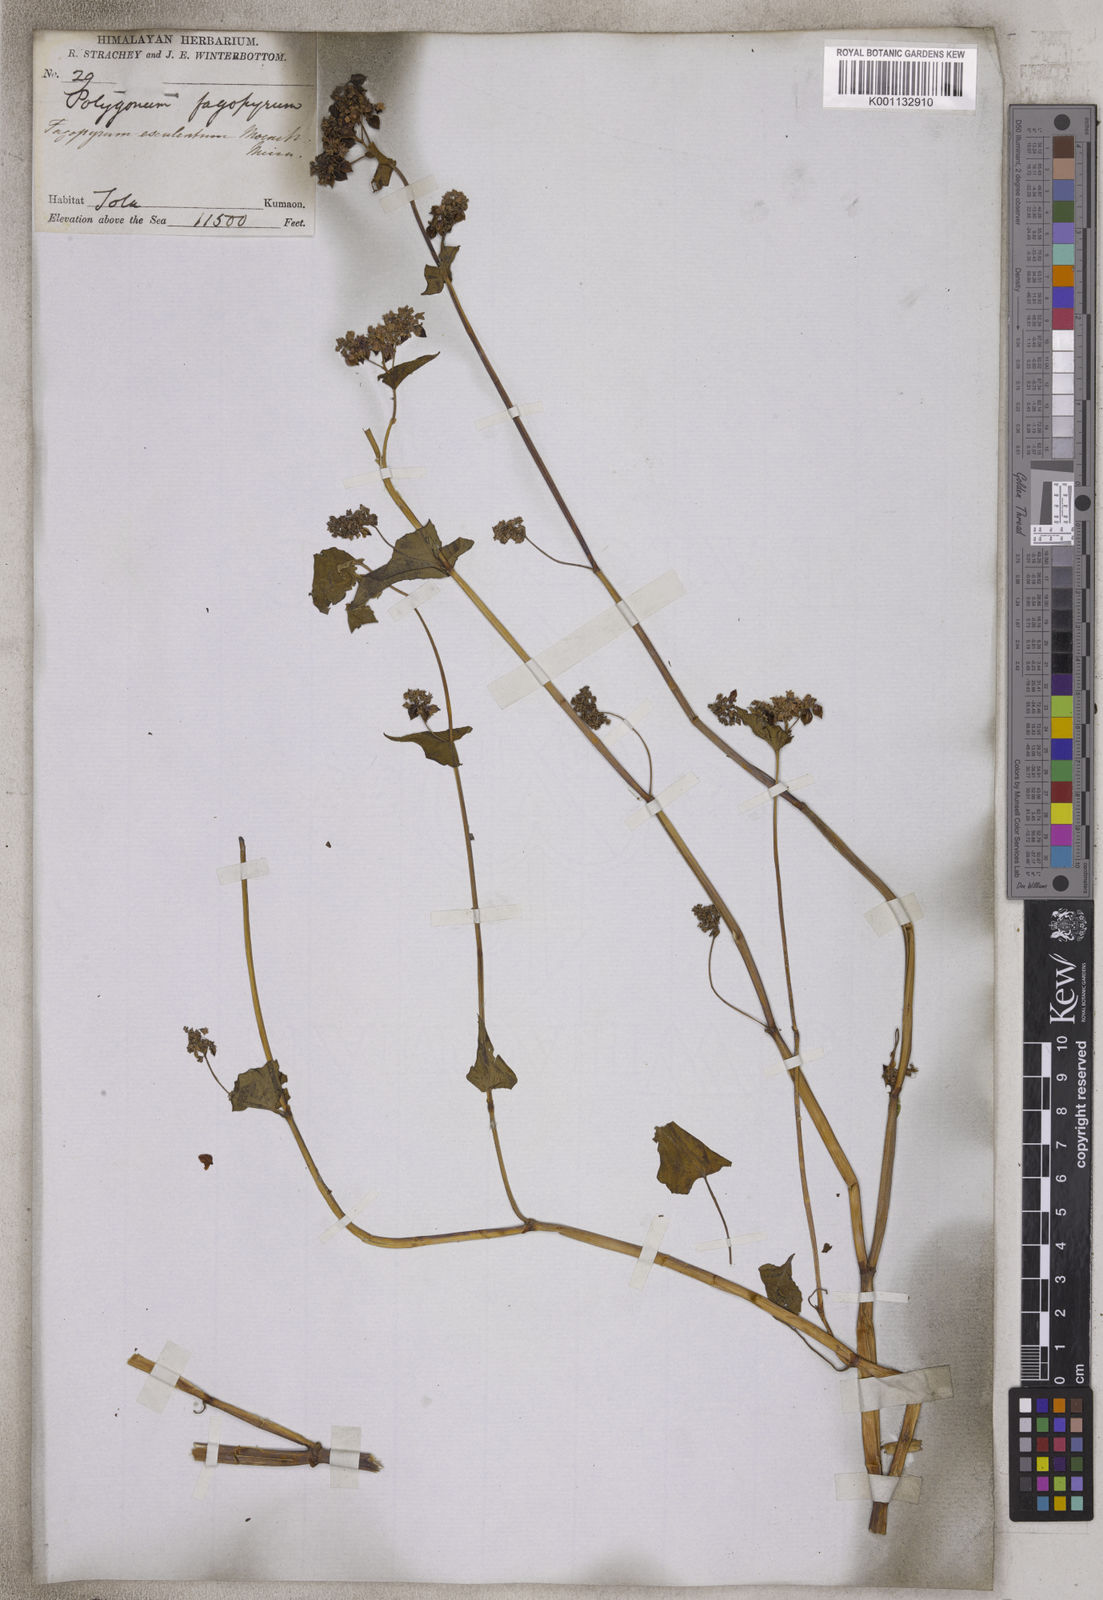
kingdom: Plantae
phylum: Tracheophyta
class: Magnoliopsida
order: Caryophyllales
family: Polygonaceae
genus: Fagopyrum
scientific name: Fagopyrum esculentum
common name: Buckwheat
